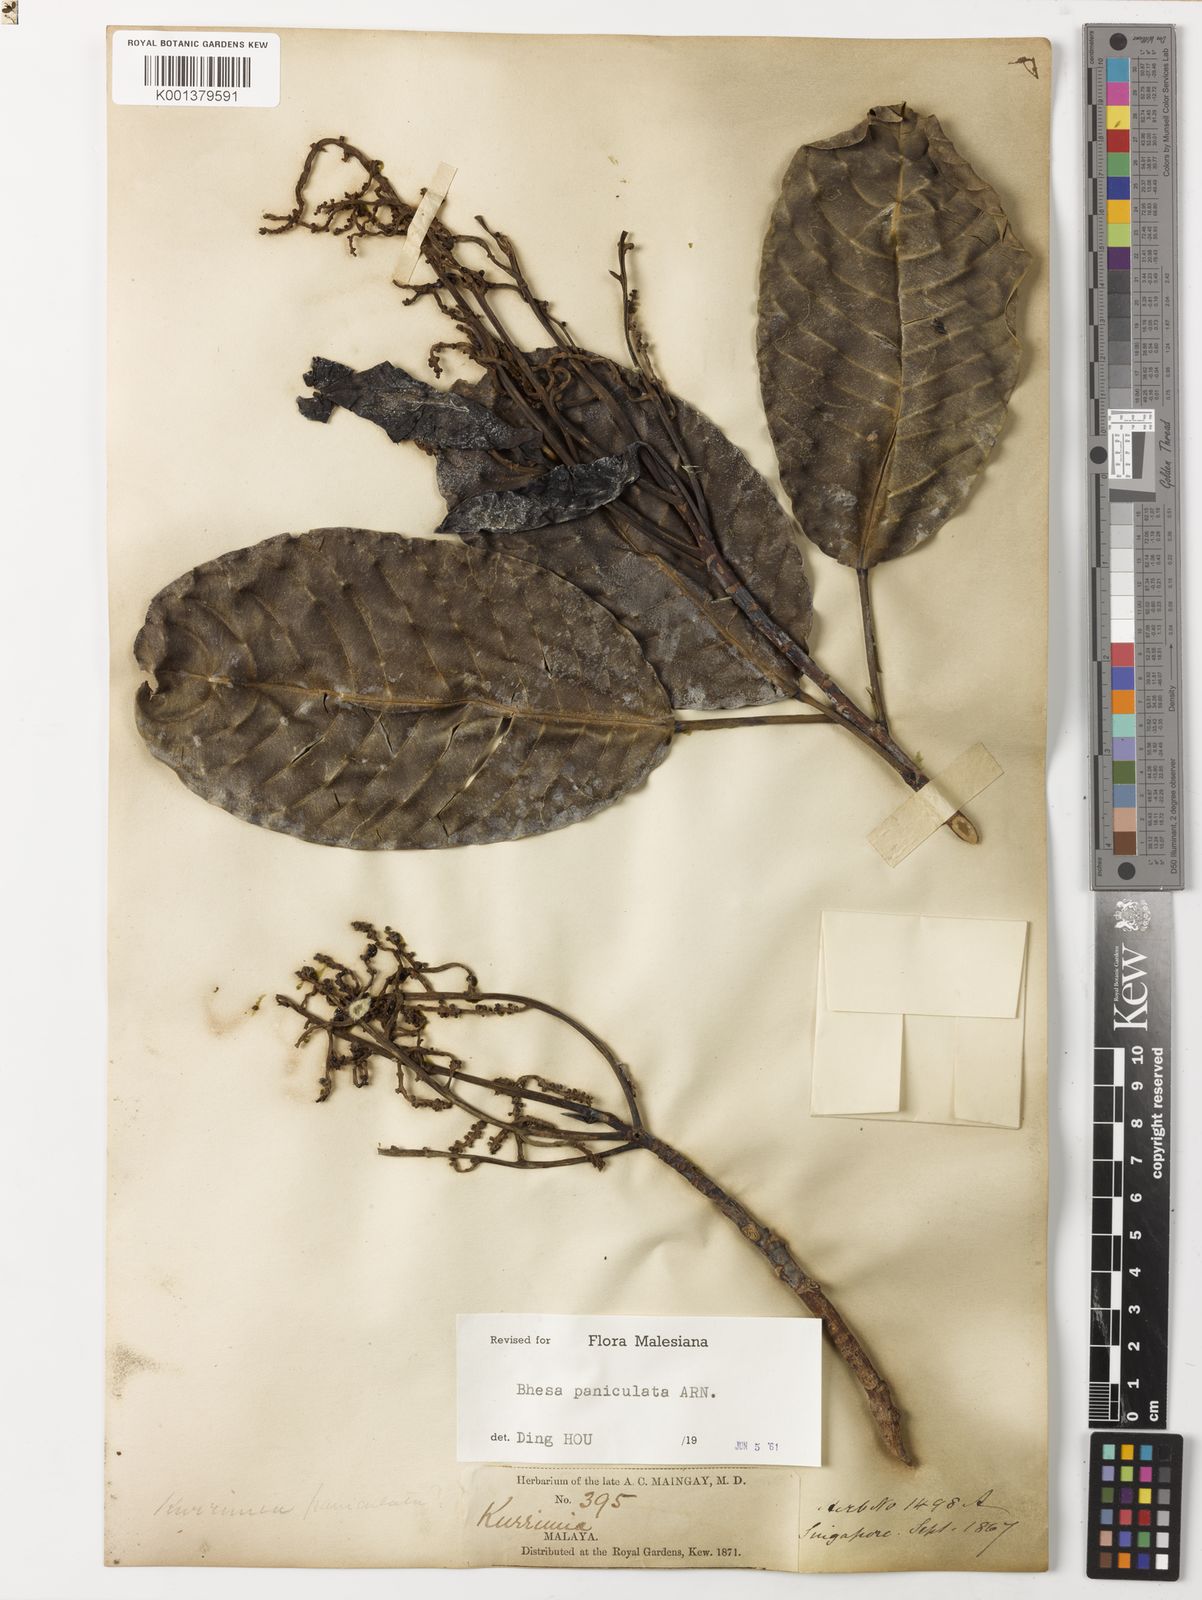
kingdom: Plantae
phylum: Tracheophyta
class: Magnoliopsida
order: Malpighiales
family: Centroplacaceae
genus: Bhesa
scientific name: Bhesa paniculata
